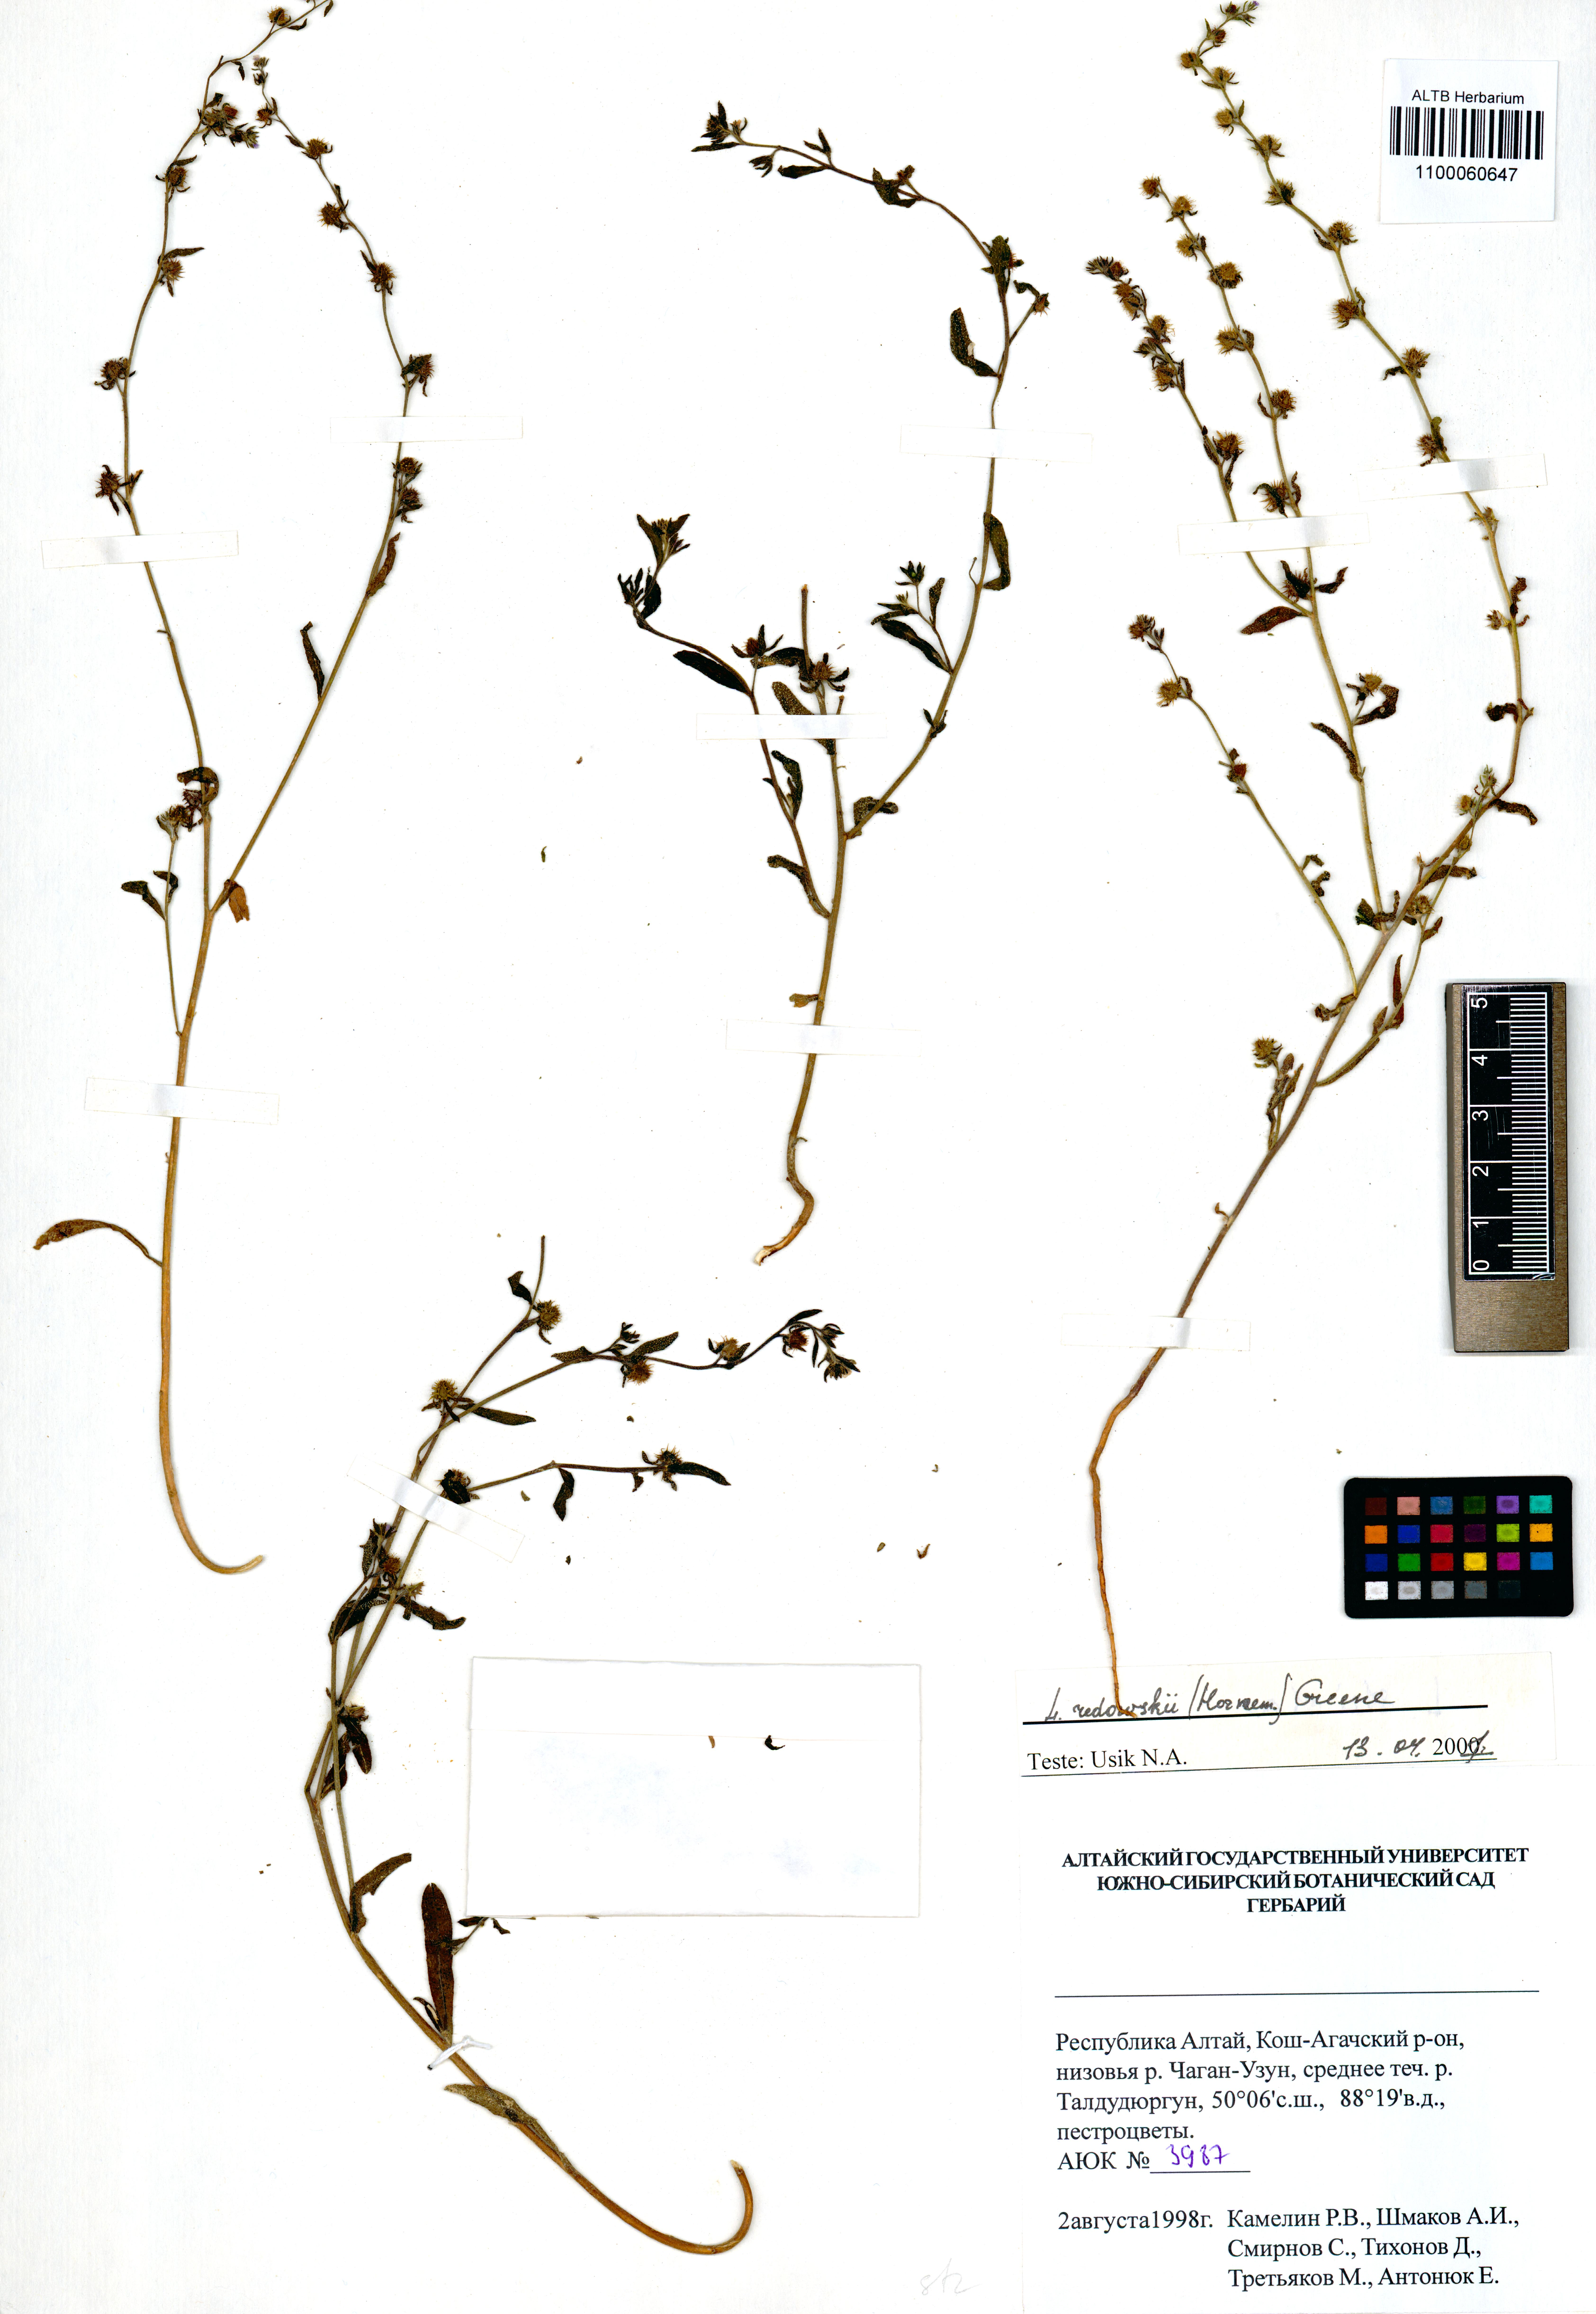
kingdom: Plantae
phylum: Tracheophyta
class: Magnoliopsida
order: Boraginales
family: Boraginaceae
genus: Lappula
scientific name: Lappula redowskii
